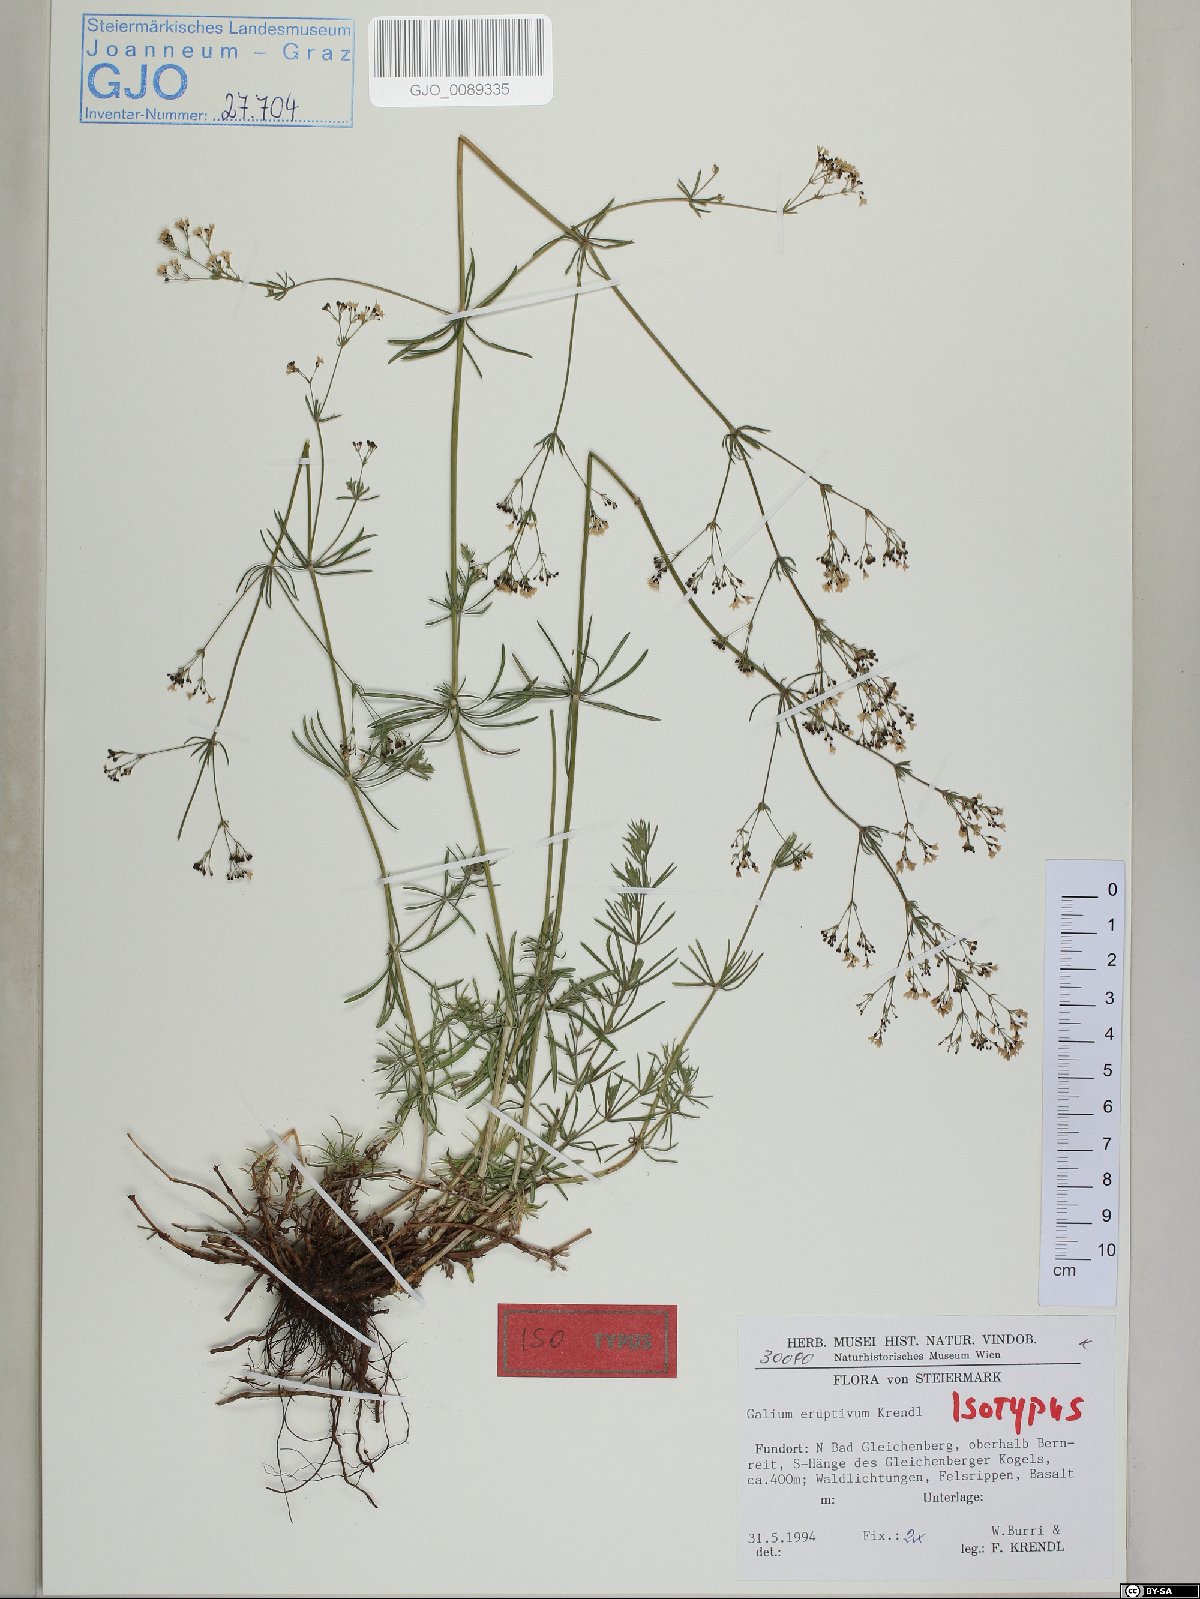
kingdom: Plantae
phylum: Tracheophyta
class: Magnoliopsida
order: Gentianales
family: Rubiaceae
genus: Galium
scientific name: Galium eruptivum
